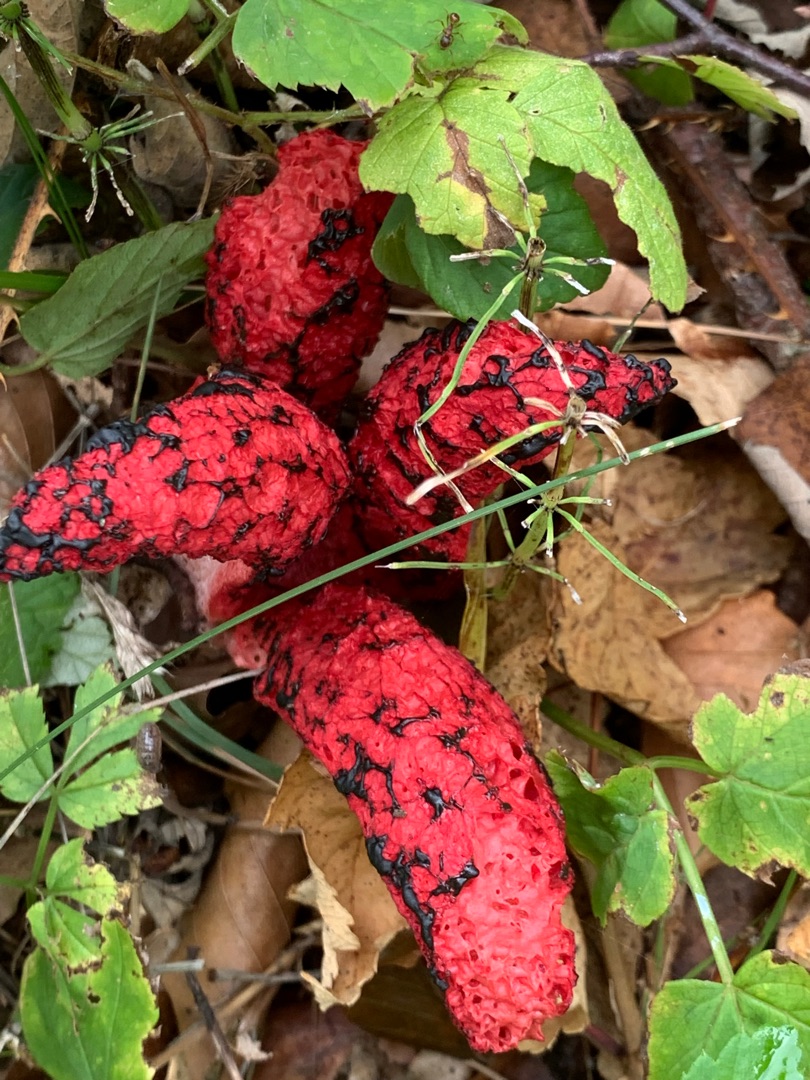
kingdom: Fungi
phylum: Basidiomycota
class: Agaricomycetes
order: Phallales
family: Phallaceae
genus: Clathrus
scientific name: Clathrus archeri
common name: Blækspruttesvamp
